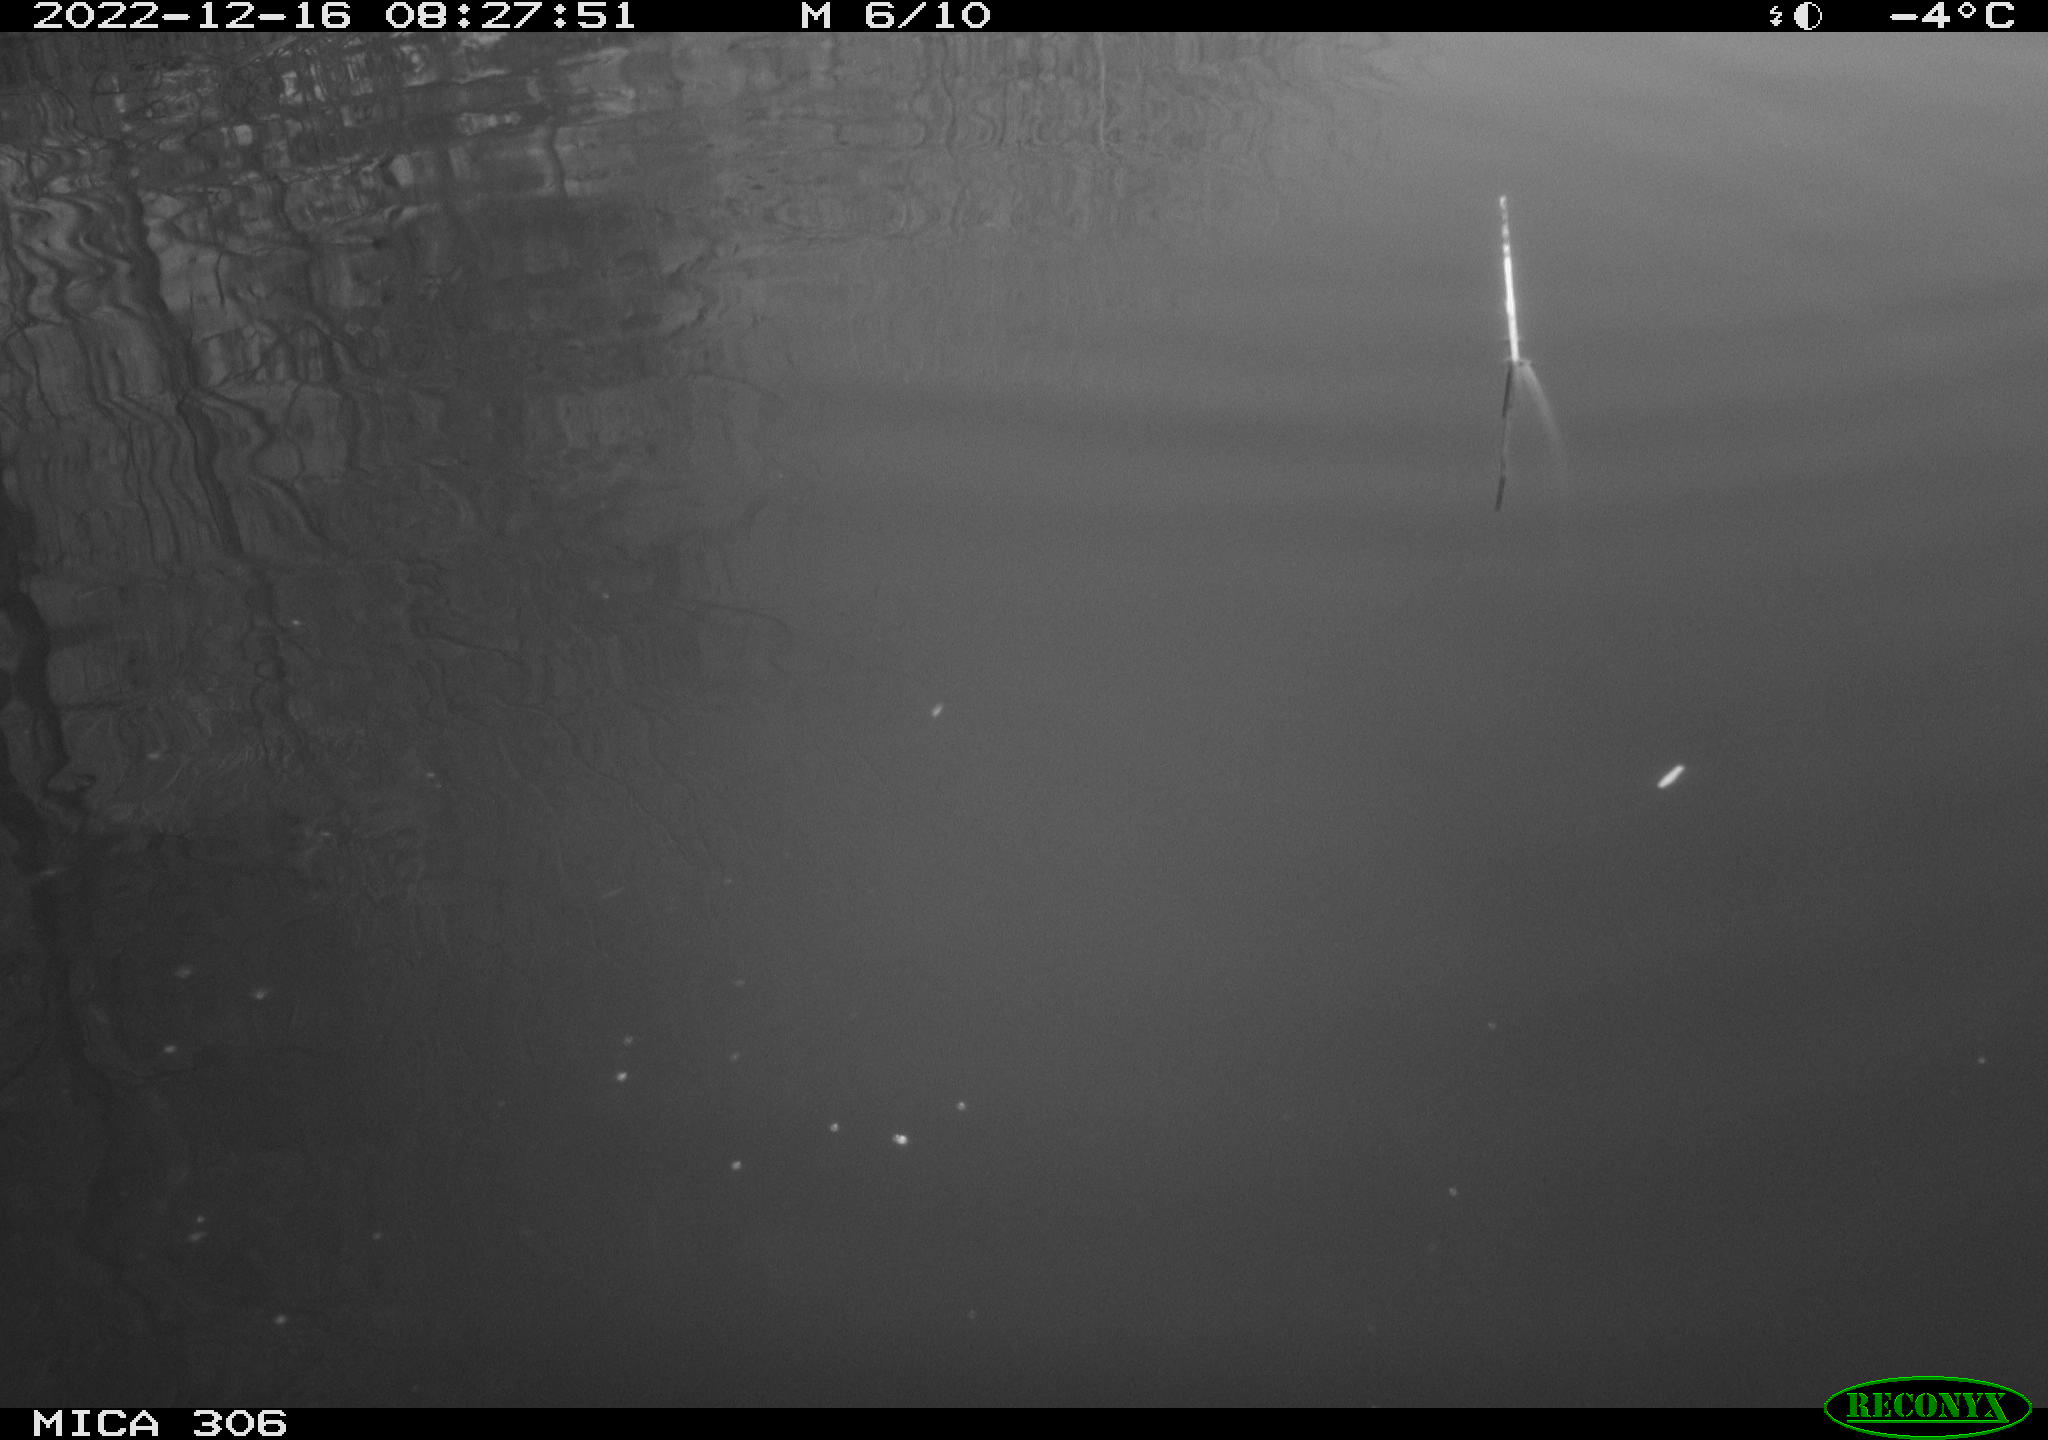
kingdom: Animalia
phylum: Chordata
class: Aves
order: Anseriformes
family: Anatidae
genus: Anas
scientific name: Anas
